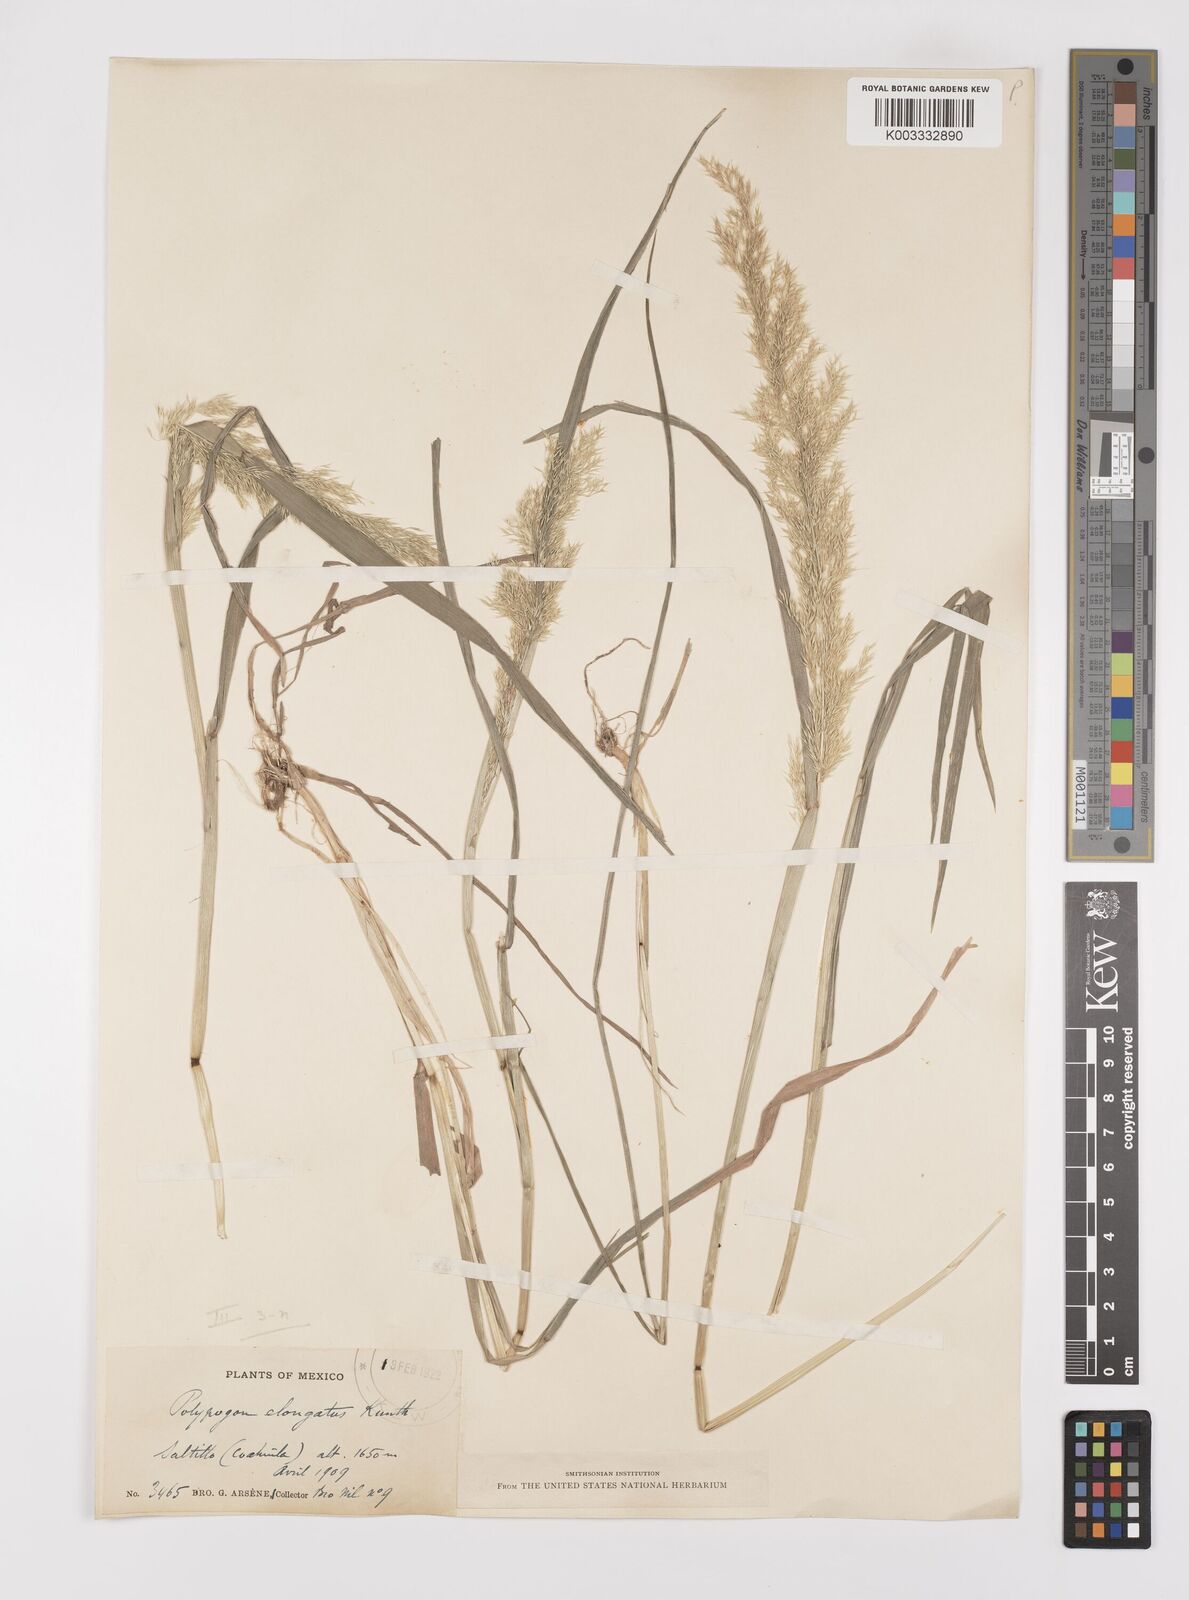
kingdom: Plantae
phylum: Tracheophyta
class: Liliopsida
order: Poales
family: Poaceae
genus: Polypogon
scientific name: Polypogon elongatus
